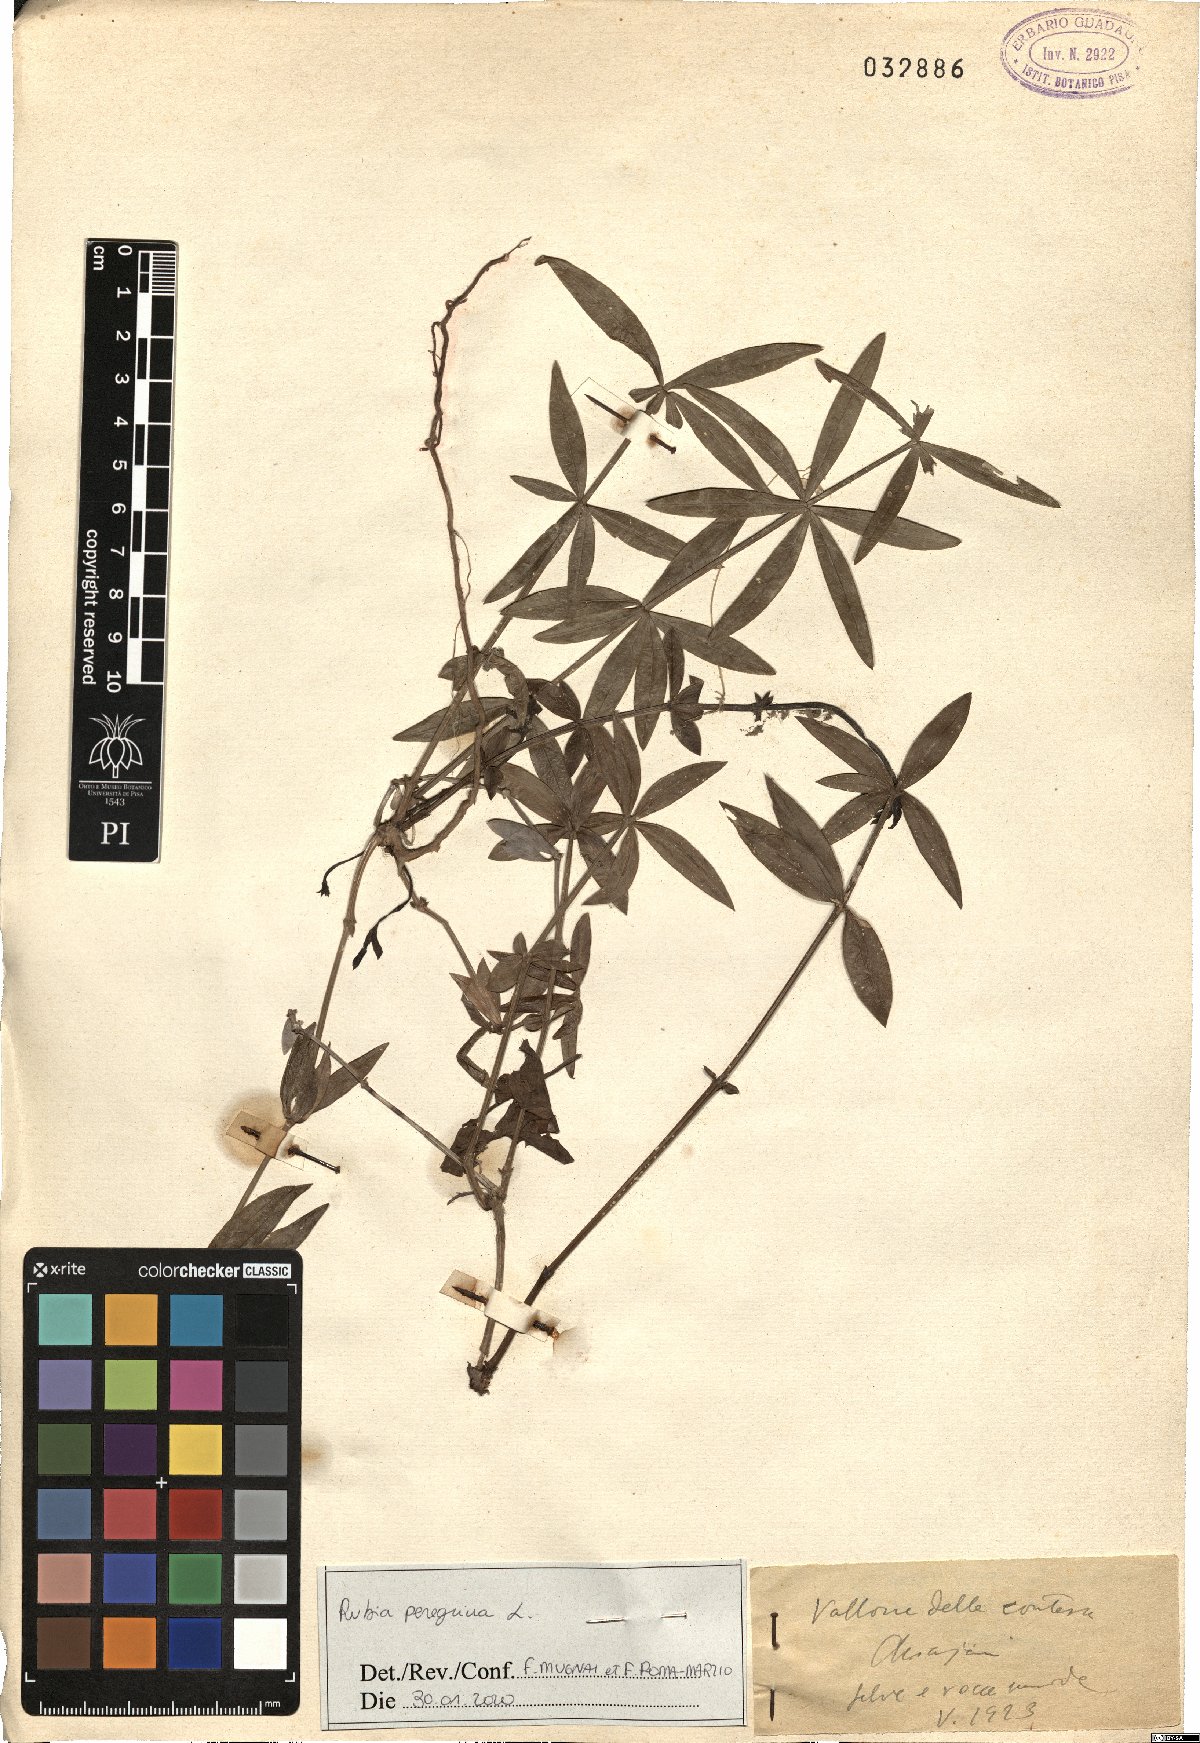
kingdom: Plantae
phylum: Tracheophyta
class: Magnoliopsida
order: Gentianales
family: Rubiaceae
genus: Rubia
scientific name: Rubia peregrina
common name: Wild madder
